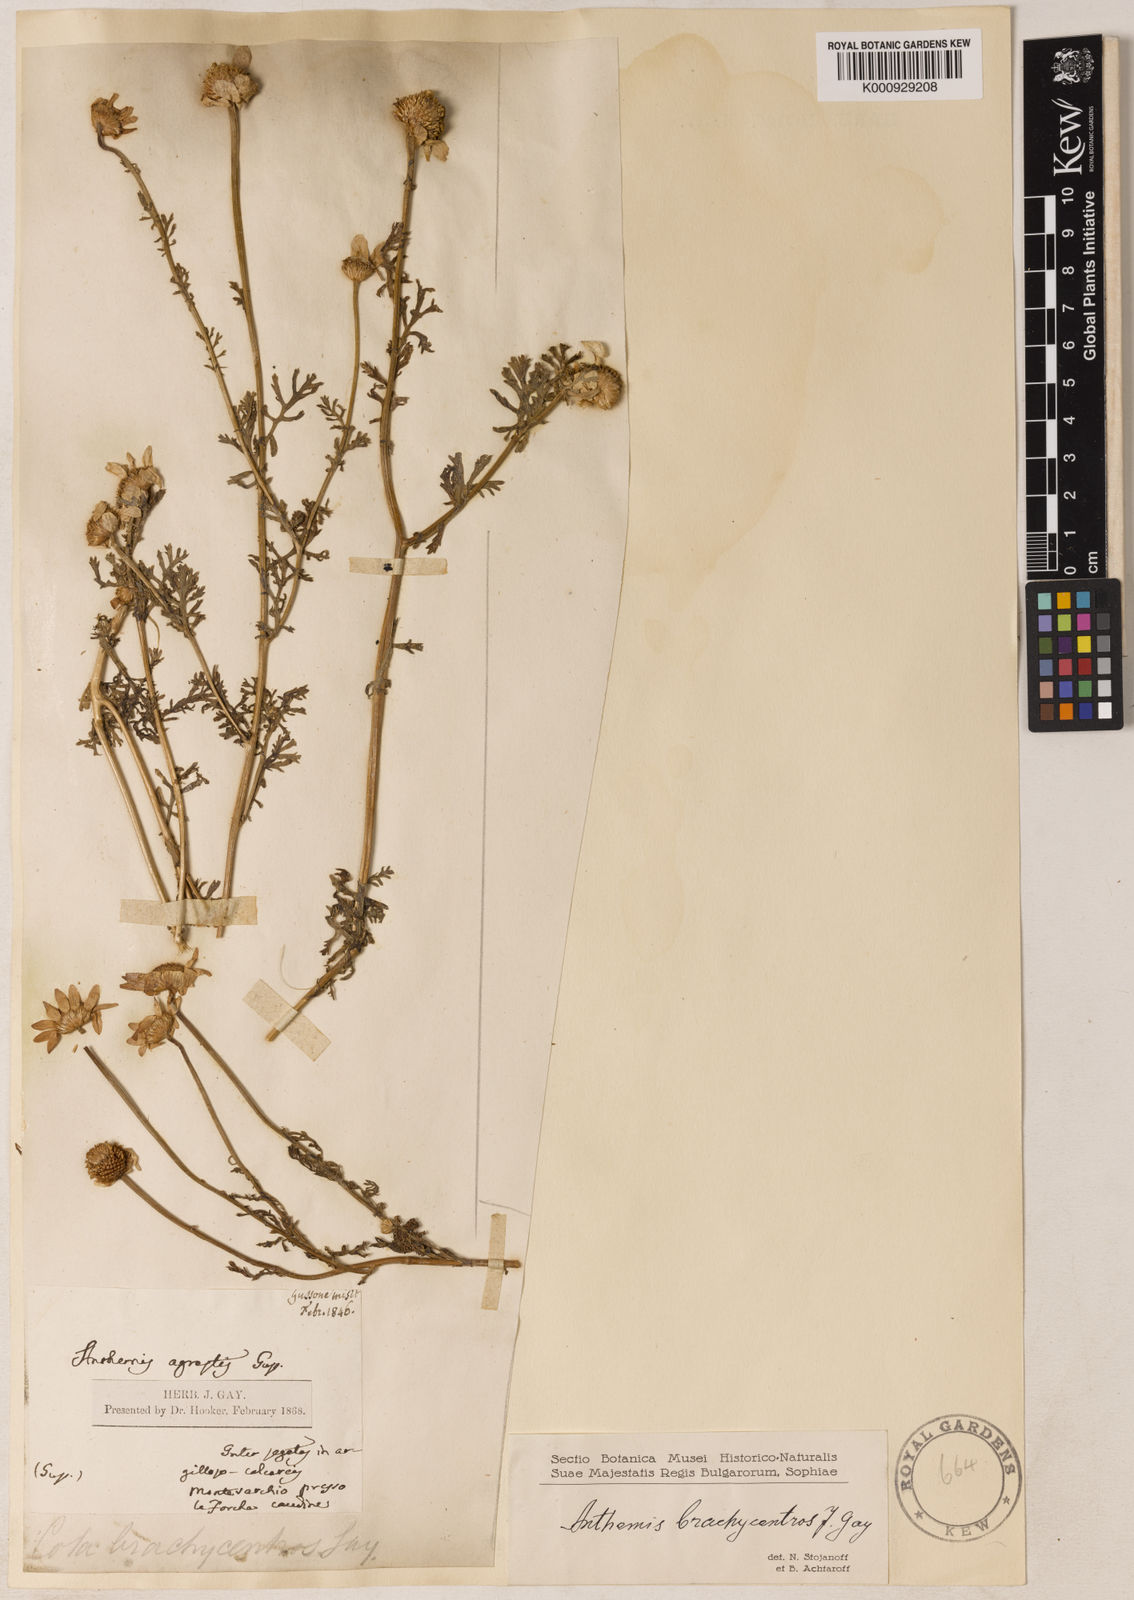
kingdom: Plantae
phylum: Tracheophyta
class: Magnoliopsida
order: Asterales
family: Asteraceae
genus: Cota
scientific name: Cota segetalis
